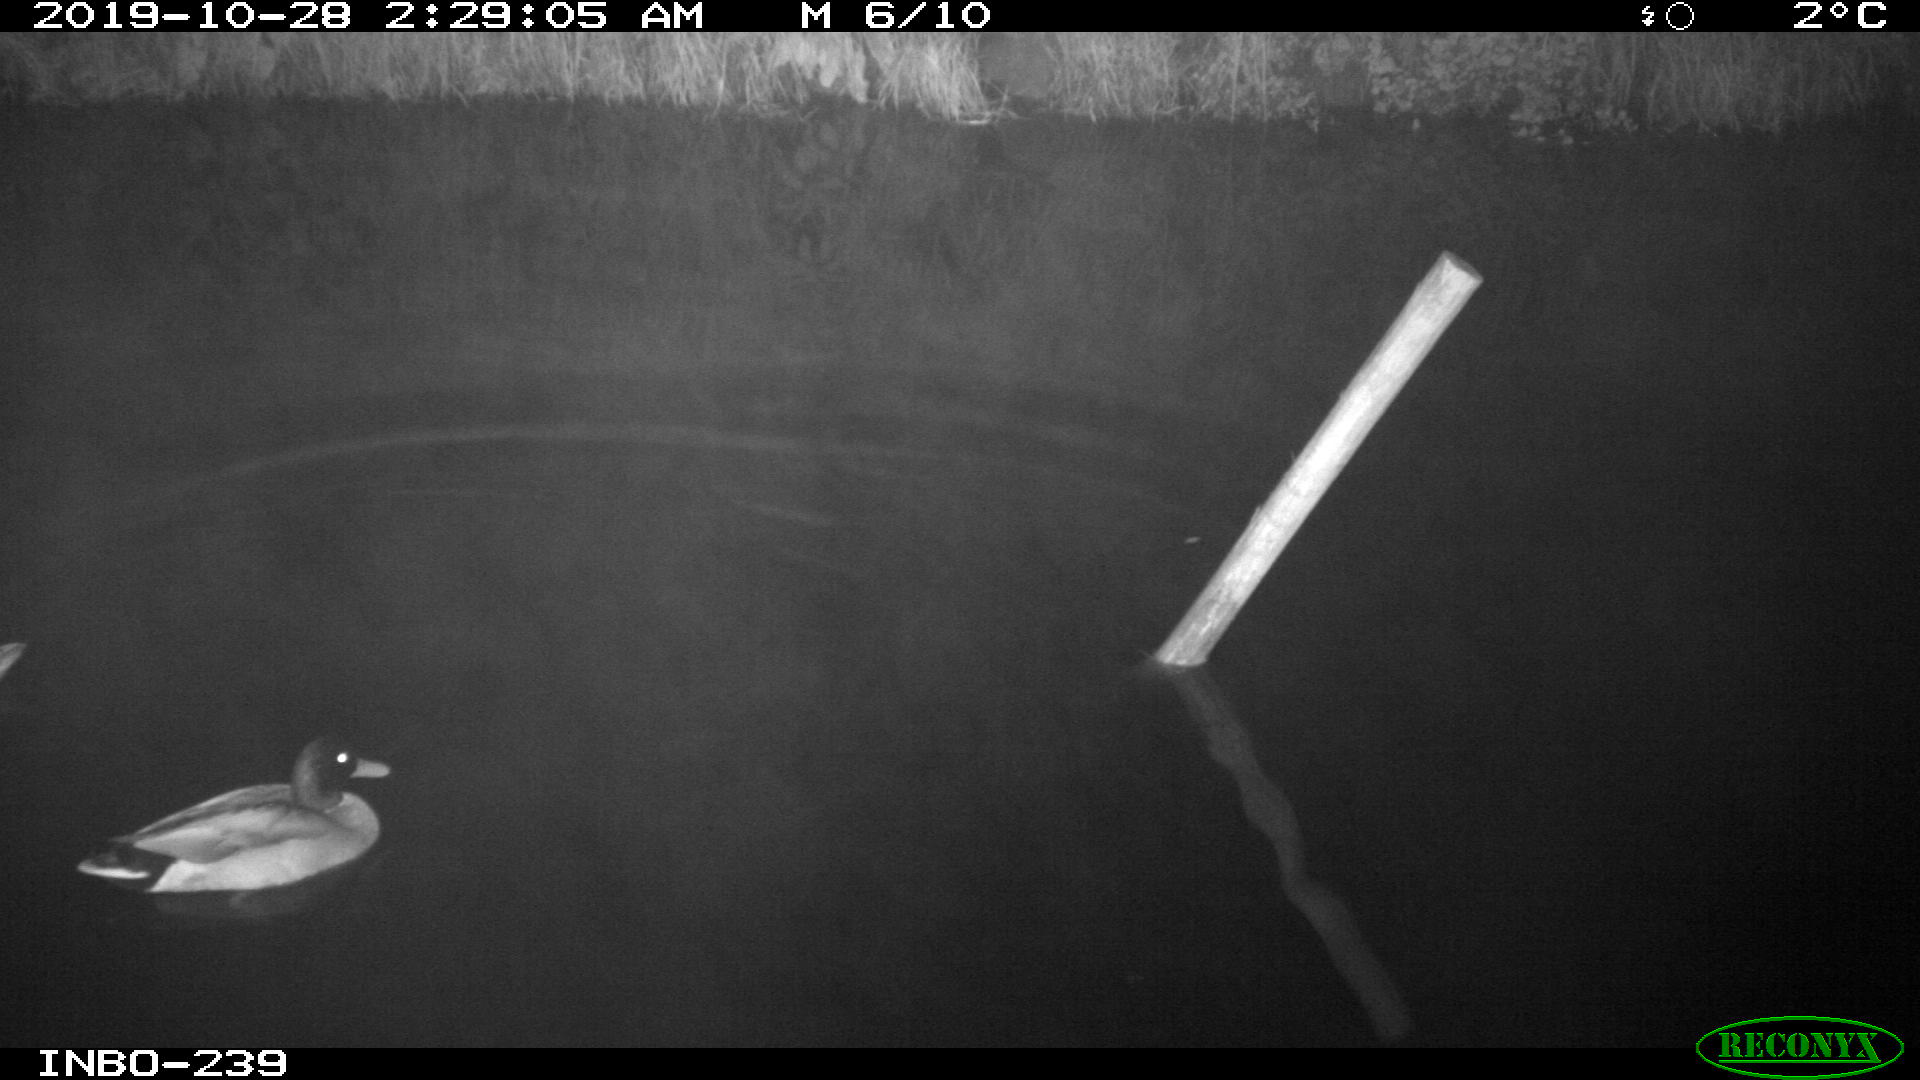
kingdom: Animalia
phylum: Chordata
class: Aves
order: Anseriformes
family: Anatidae
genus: Anas
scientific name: Anas platyrhynchos
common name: Mallard
